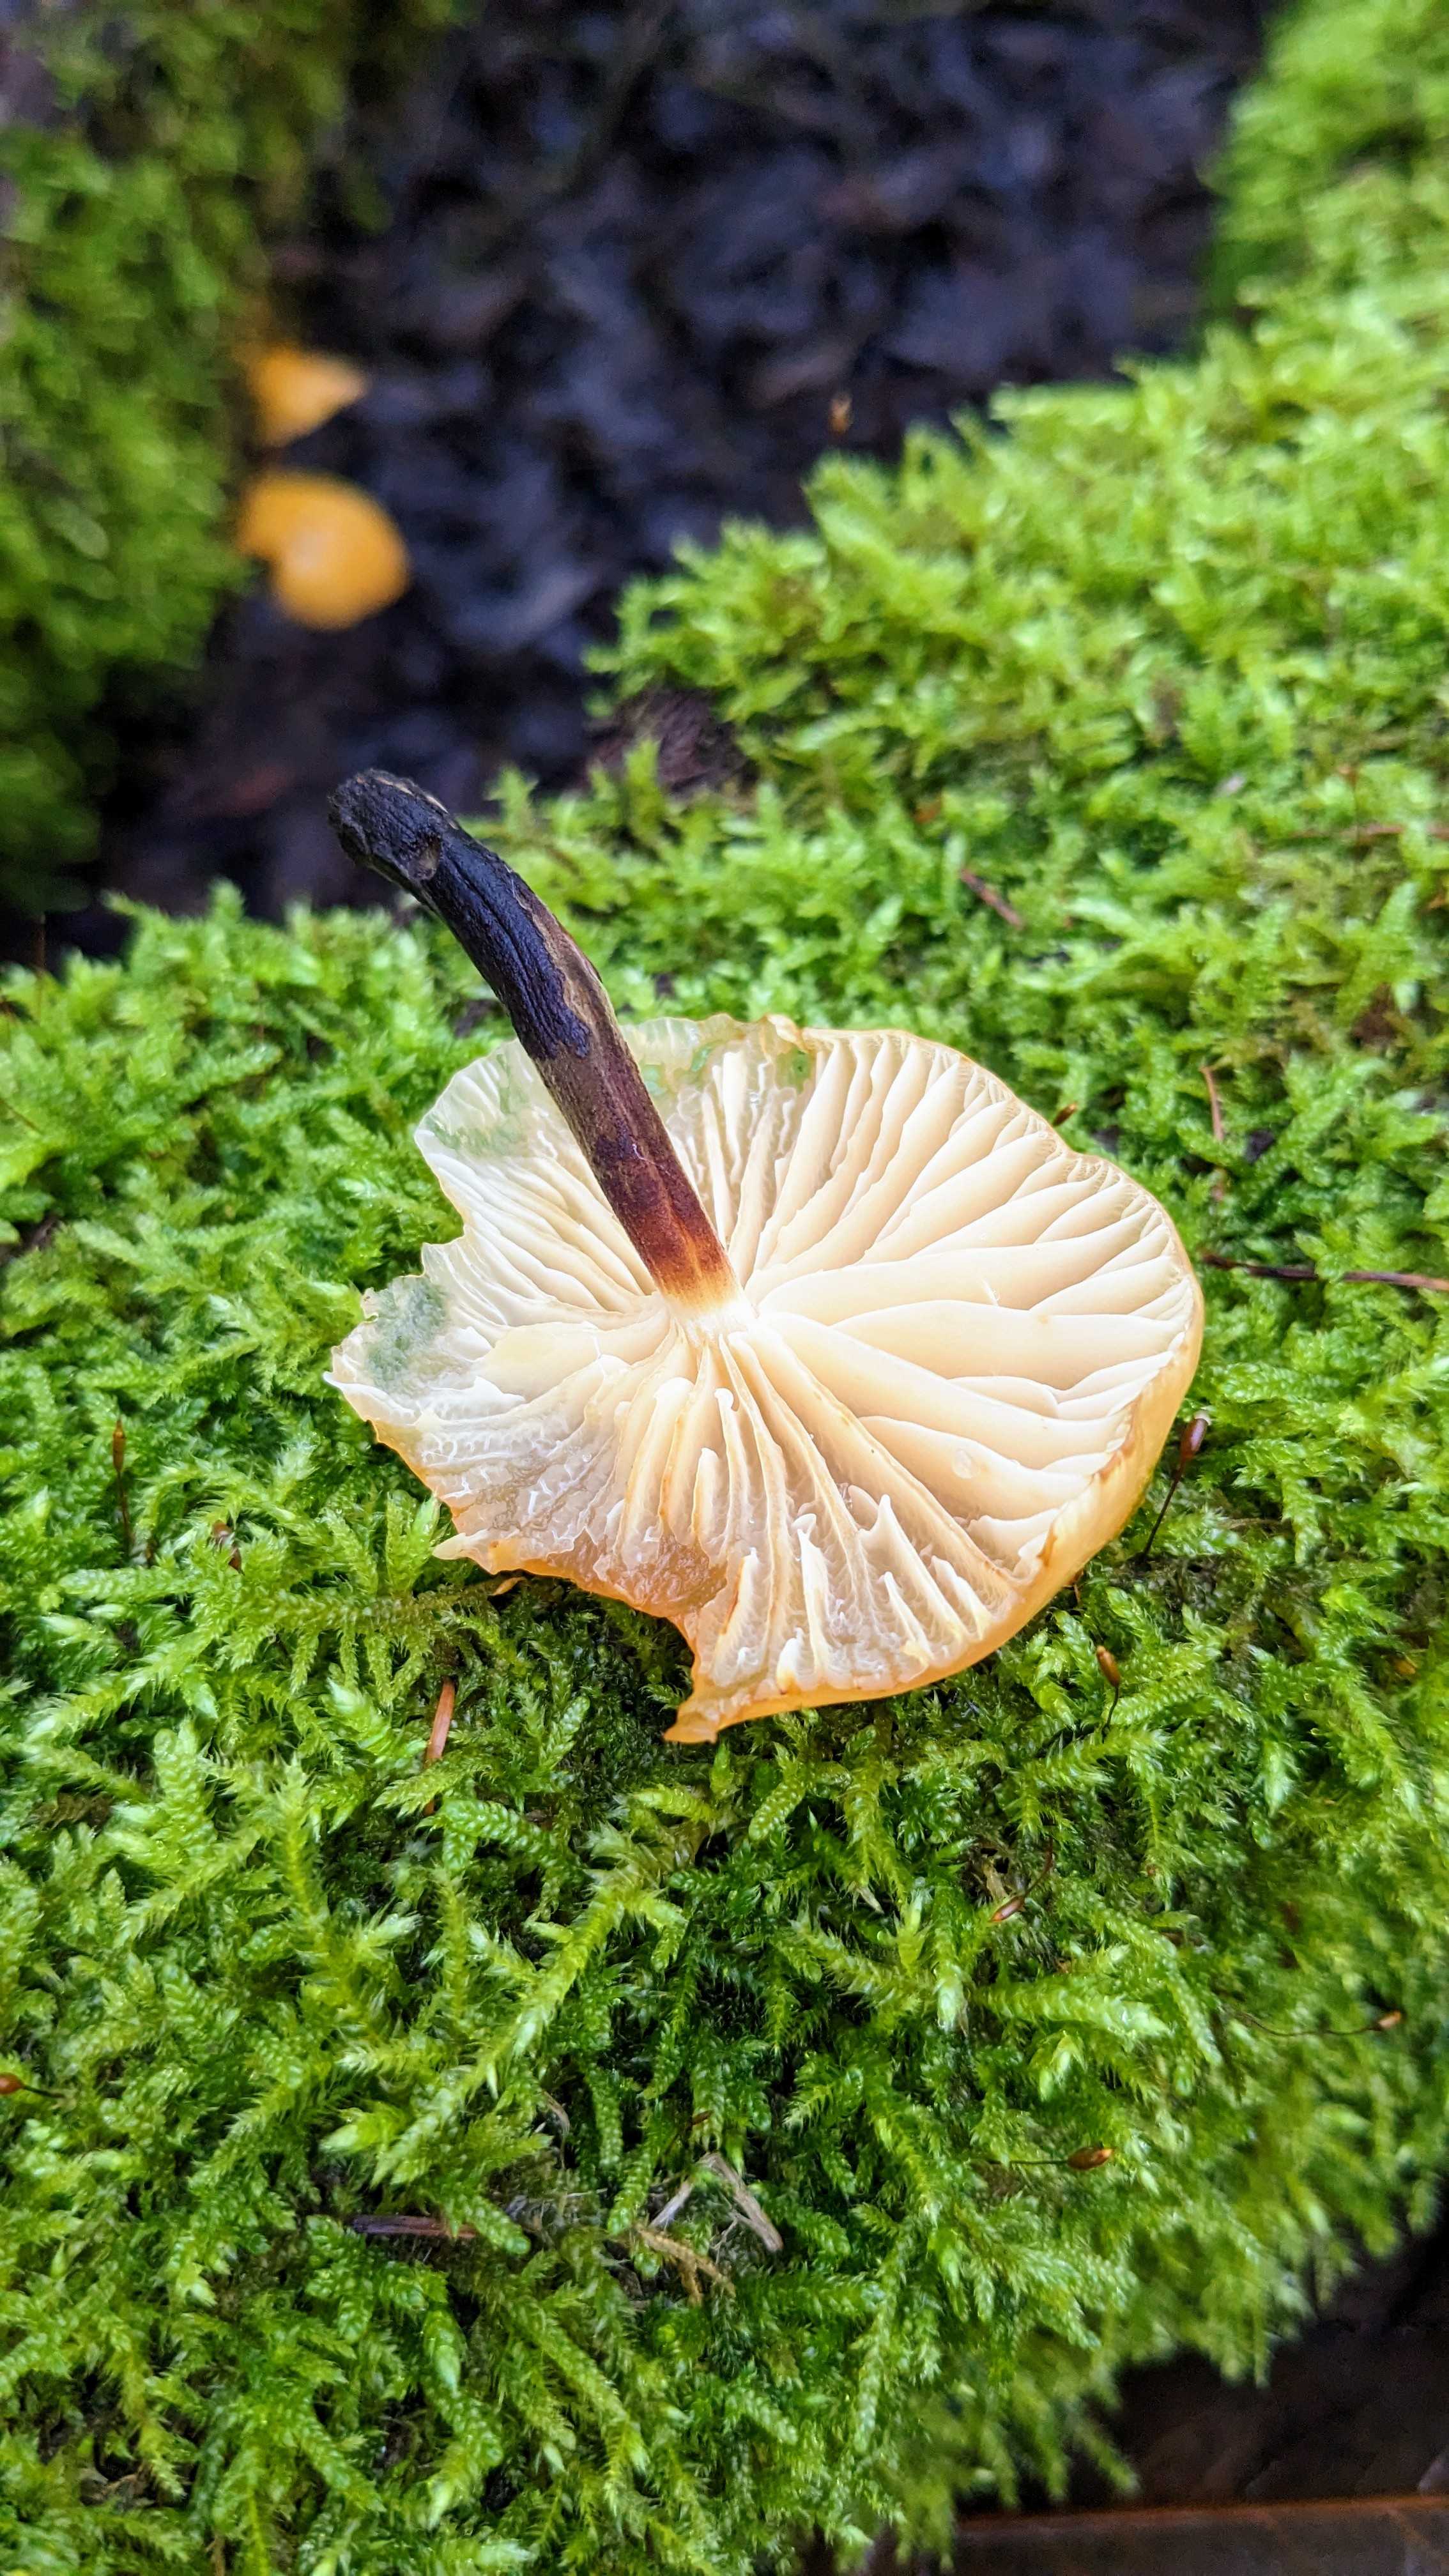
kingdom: Fungi
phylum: Basidiomycota
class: Agaricomycetes
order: Agaricales
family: Physalacriaceae
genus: Flammulina
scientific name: Flammulina
